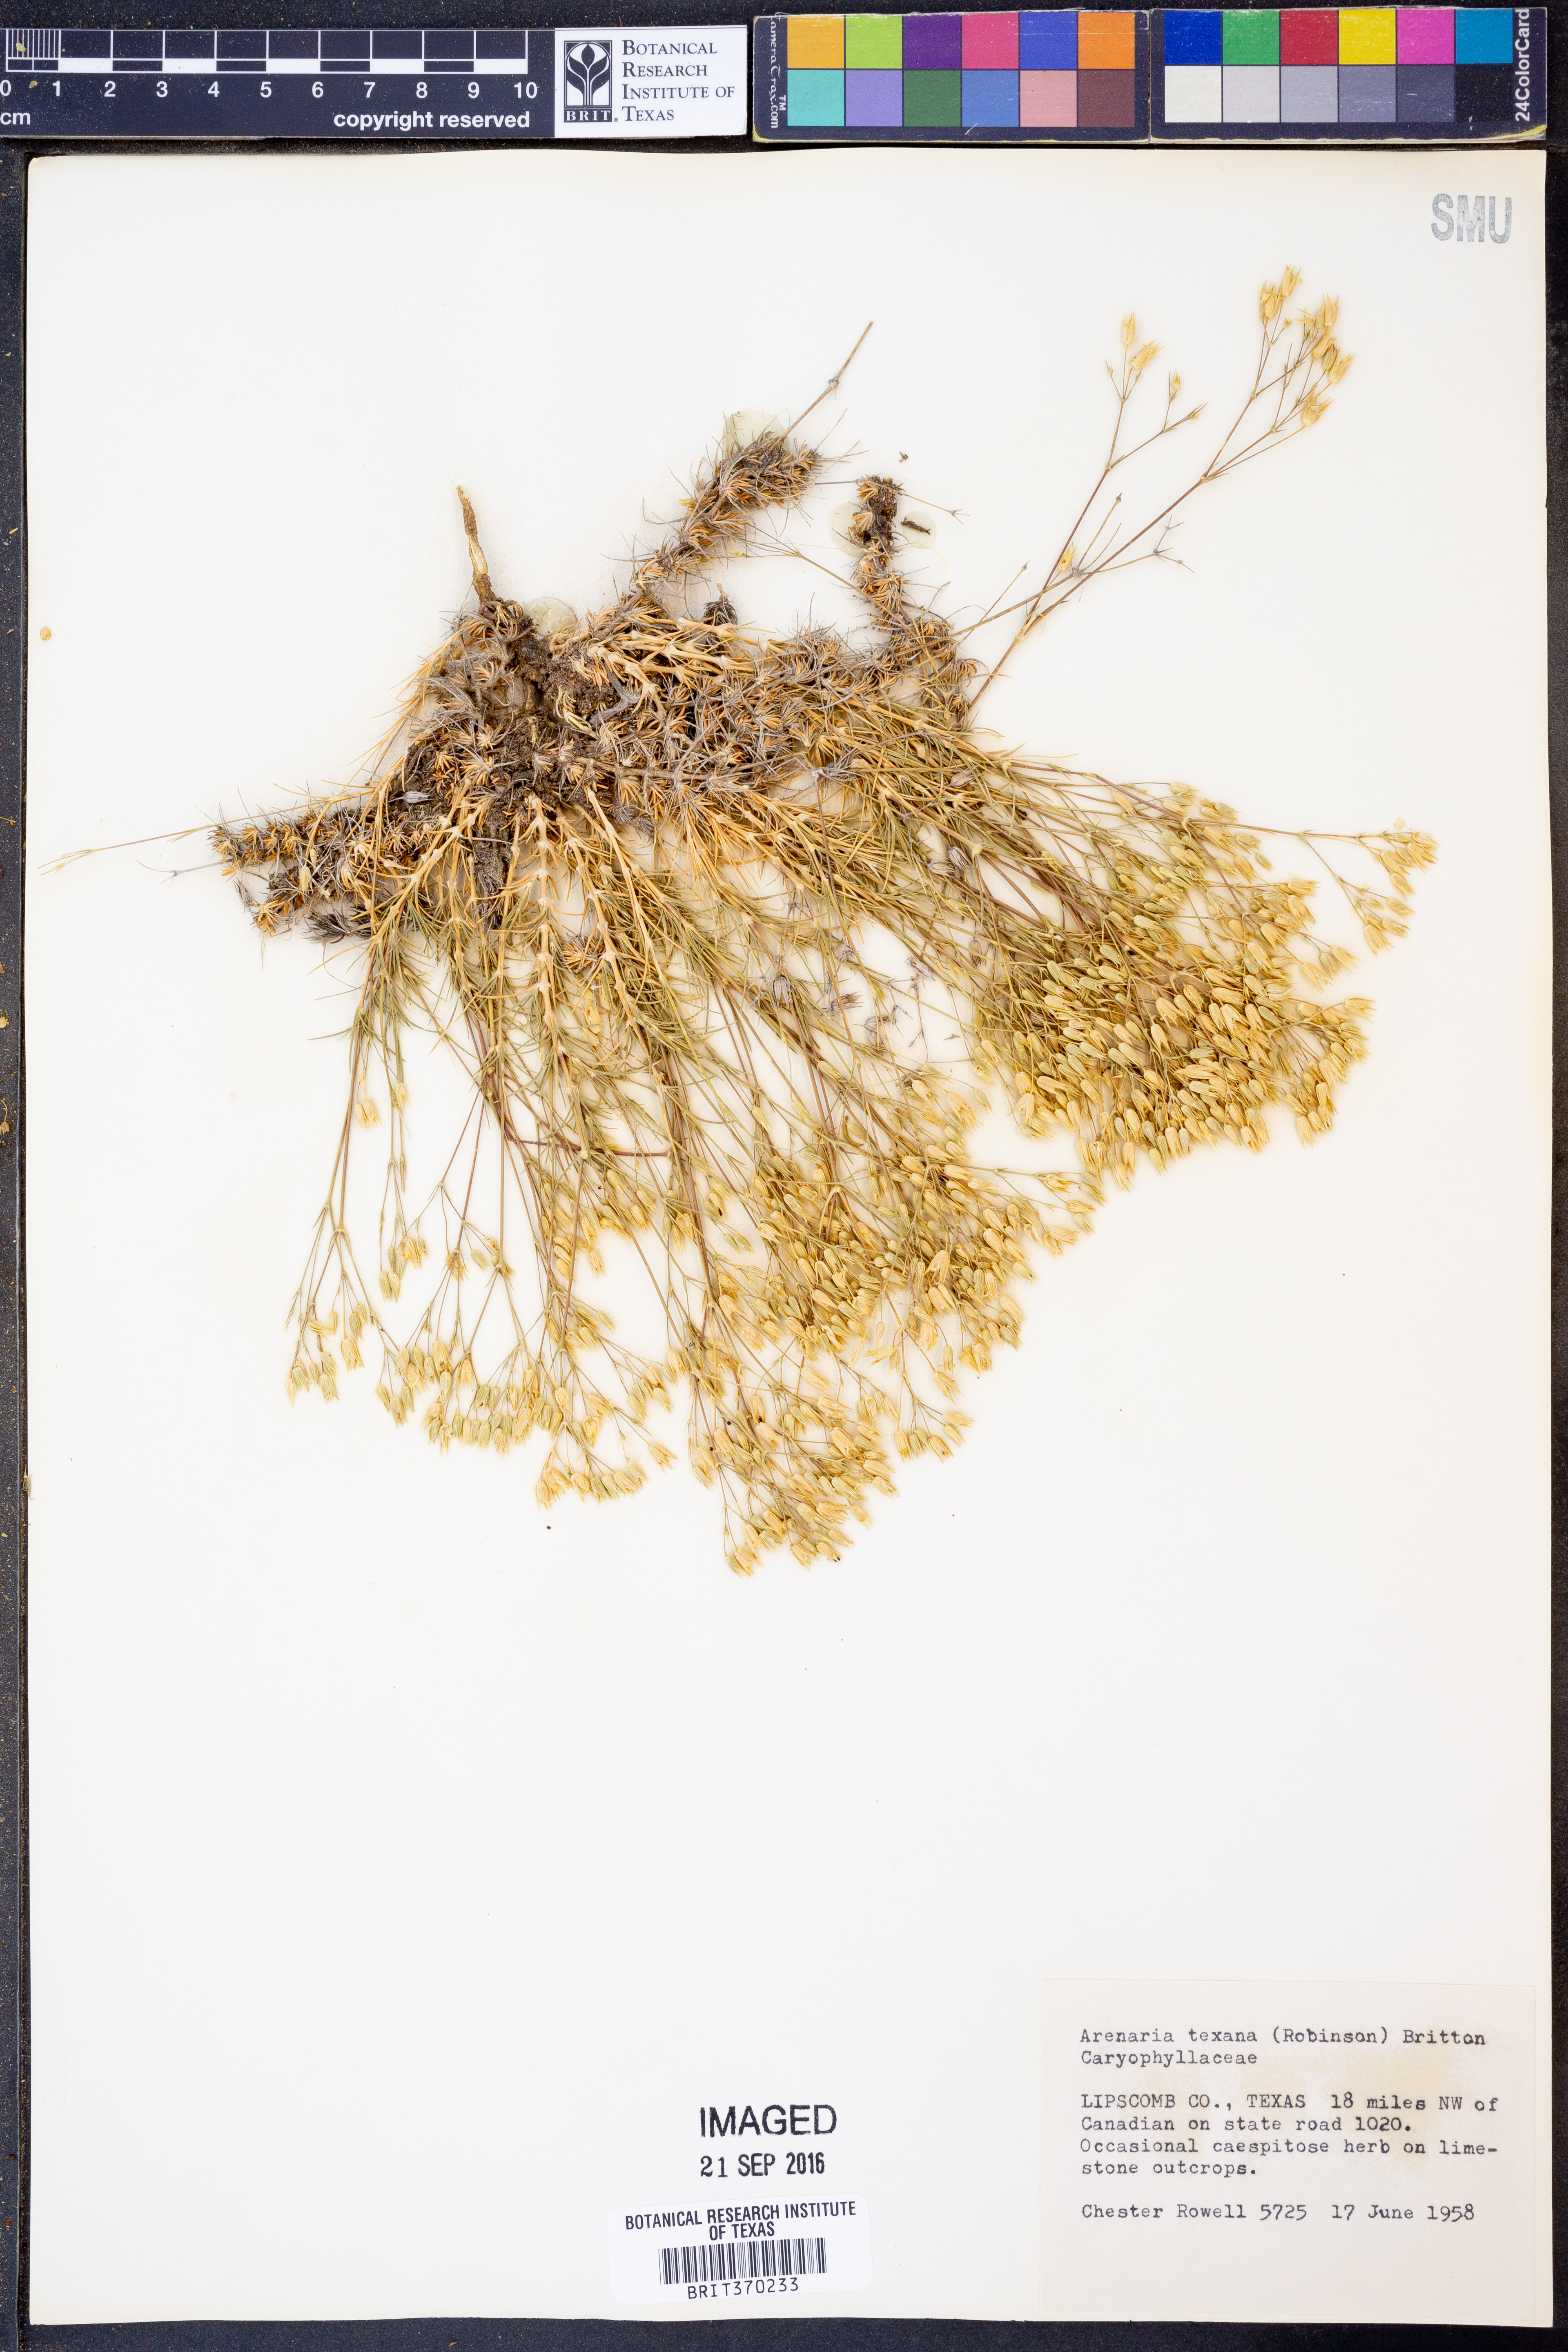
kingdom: Plantae
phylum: Tracheophyta
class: Magnoliopsida
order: Caryophyllales
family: Caryophyllaceae
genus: Sabulina
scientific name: Sabulina texana
